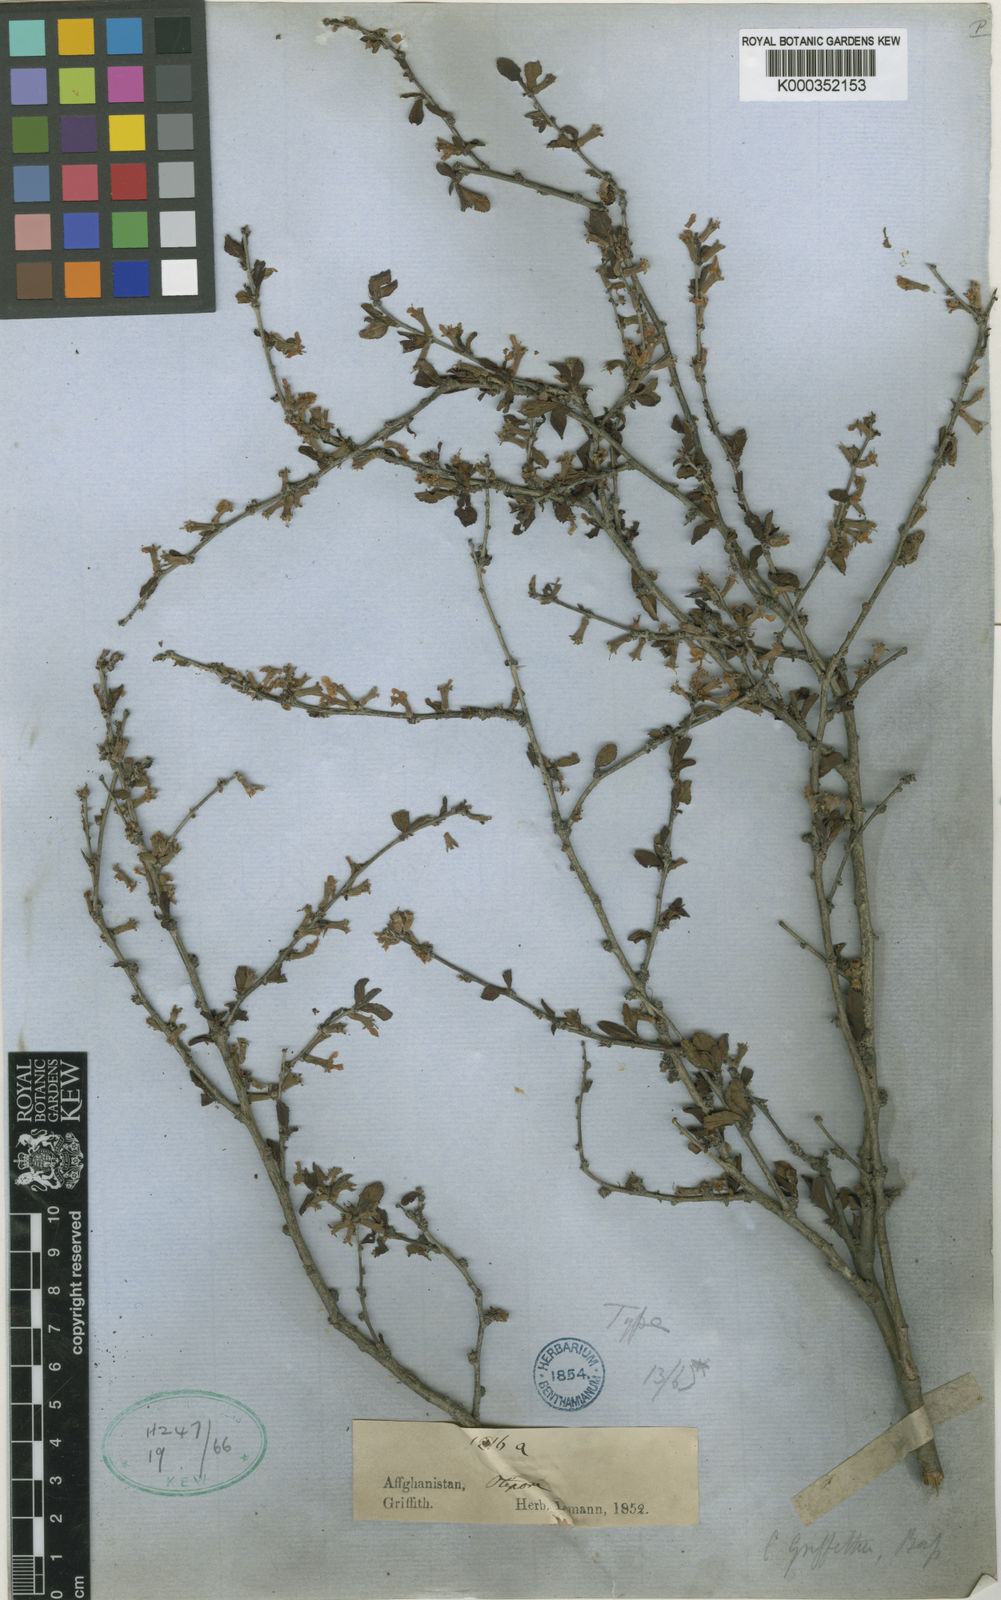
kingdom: Plantae
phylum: Tracheophyta
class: Magnoliopsida
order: Rosales
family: Rosaceae
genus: Prunus
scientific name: Prunus griffithii
